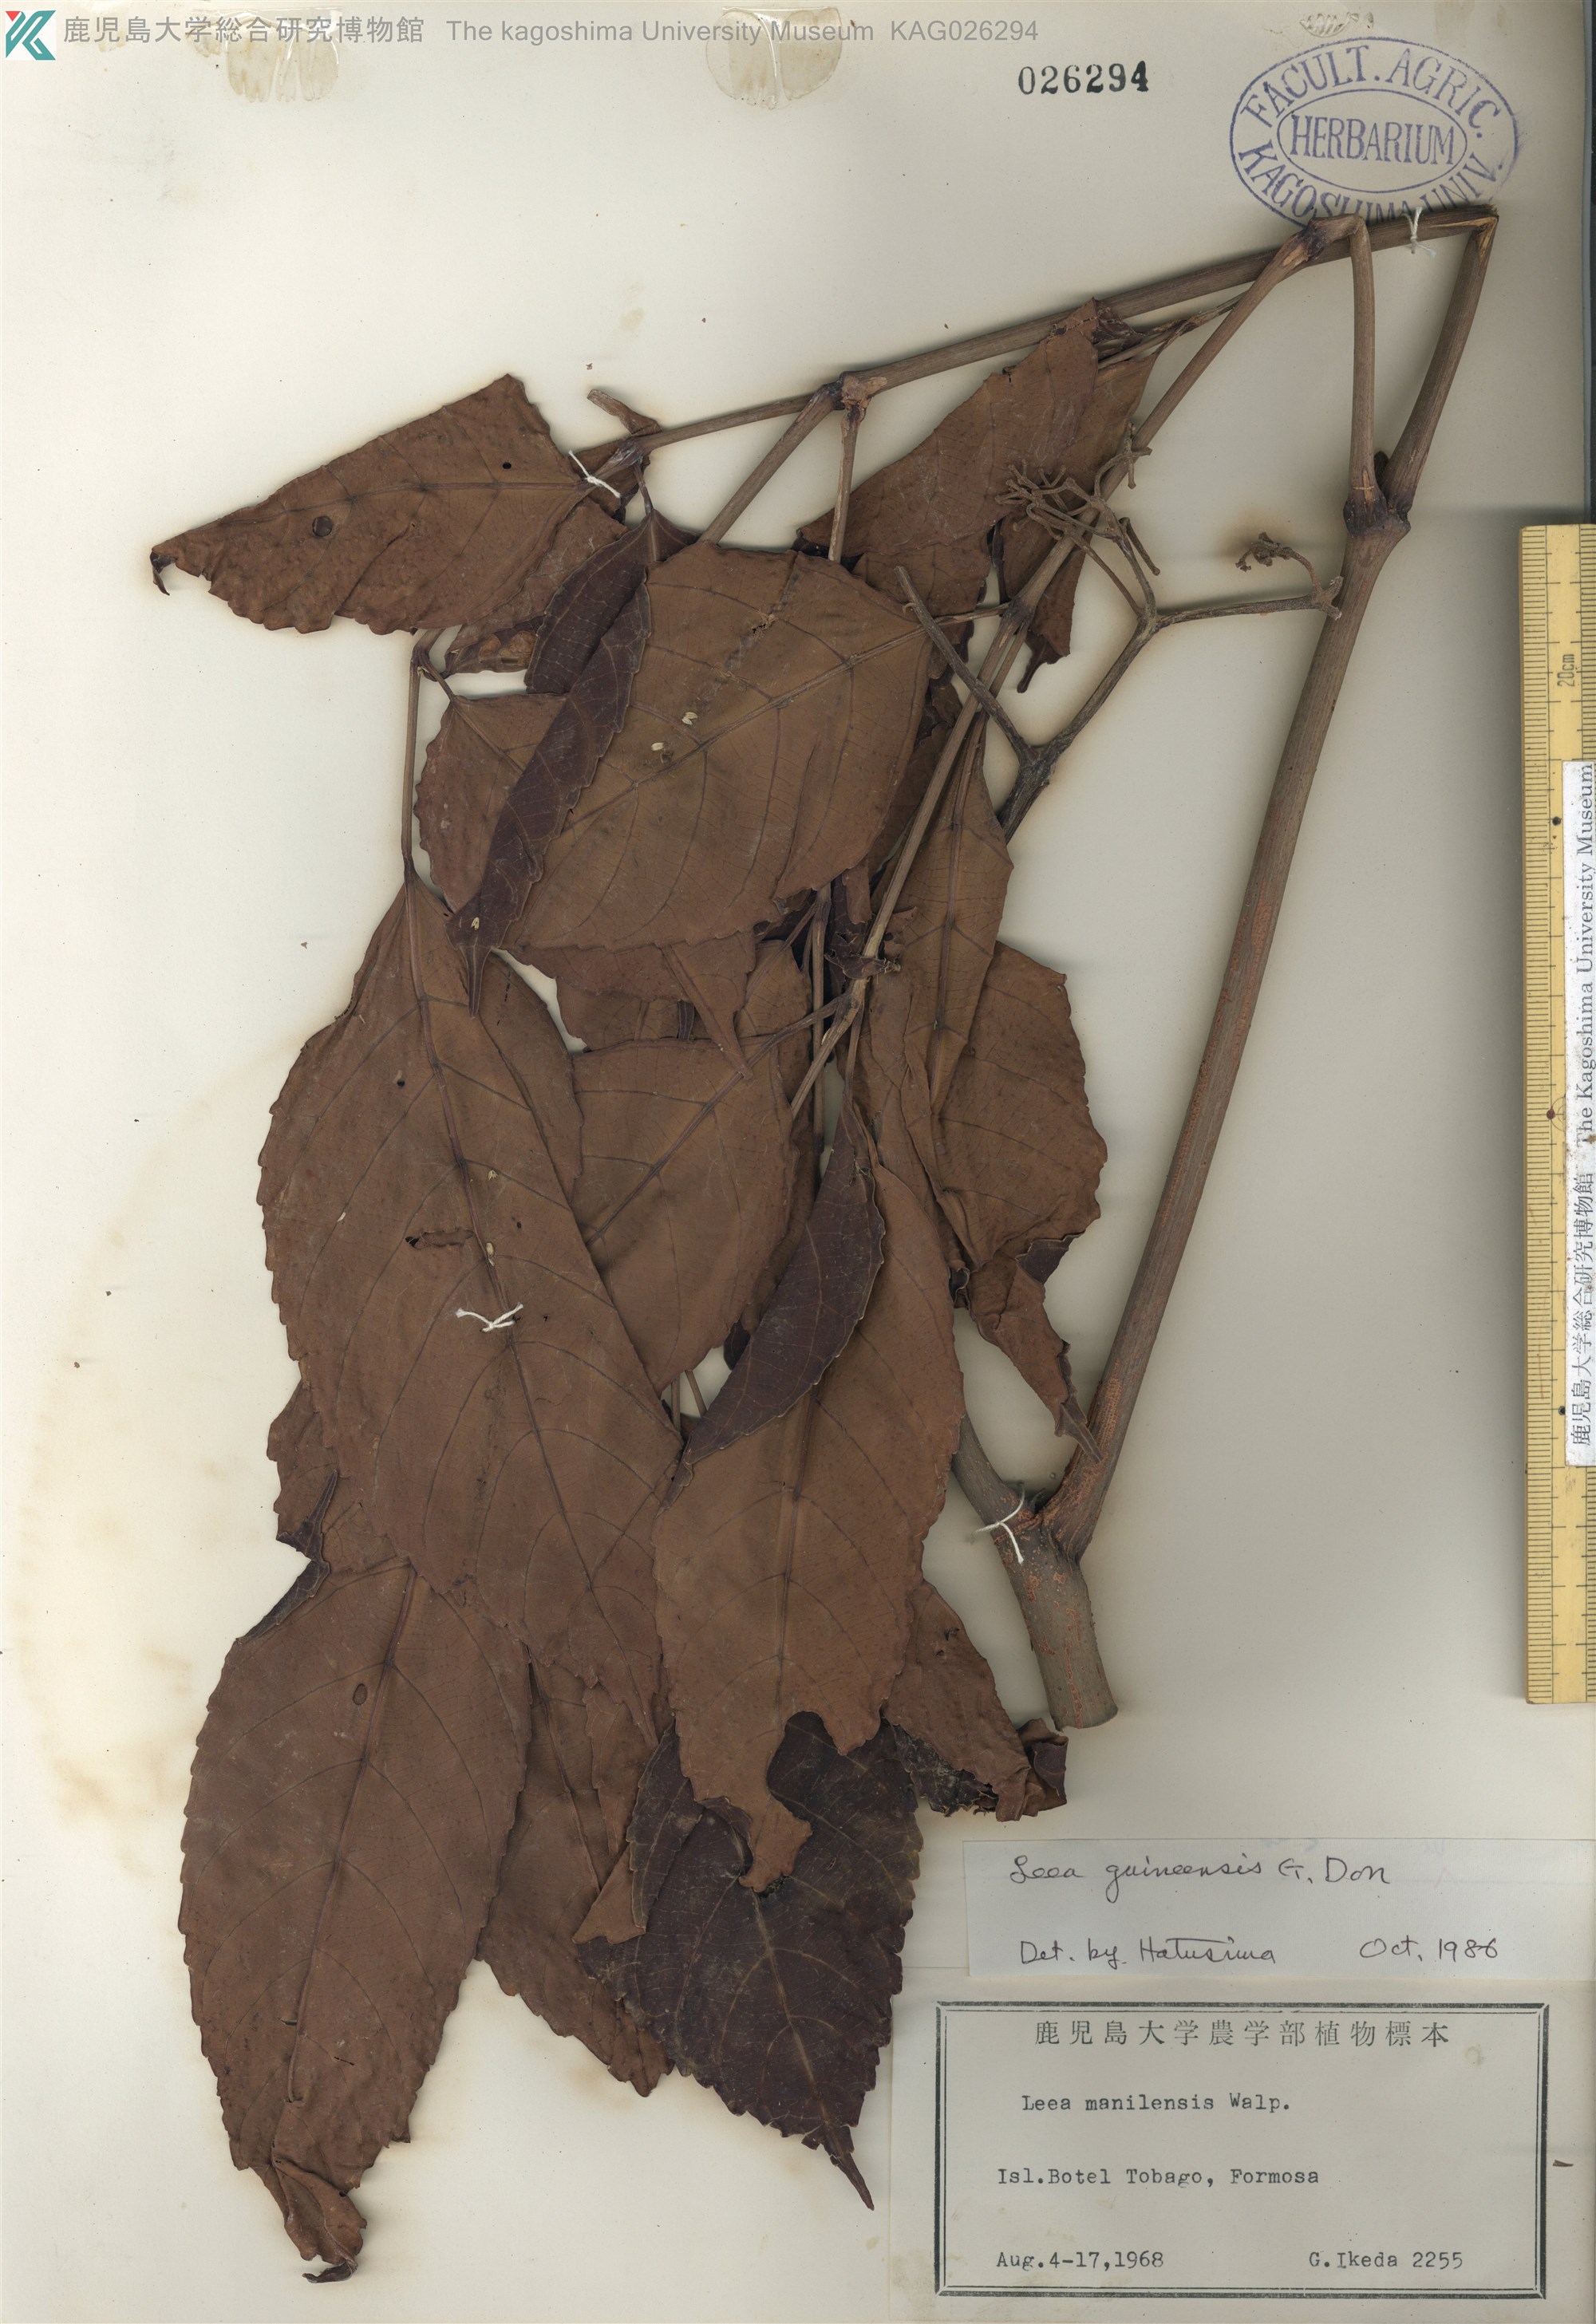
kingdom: Plantae
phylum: Tracheophyta
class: Magnoliopsida
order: Vitales
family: Vitaceae
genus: Leea
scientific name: Leea guineensis
